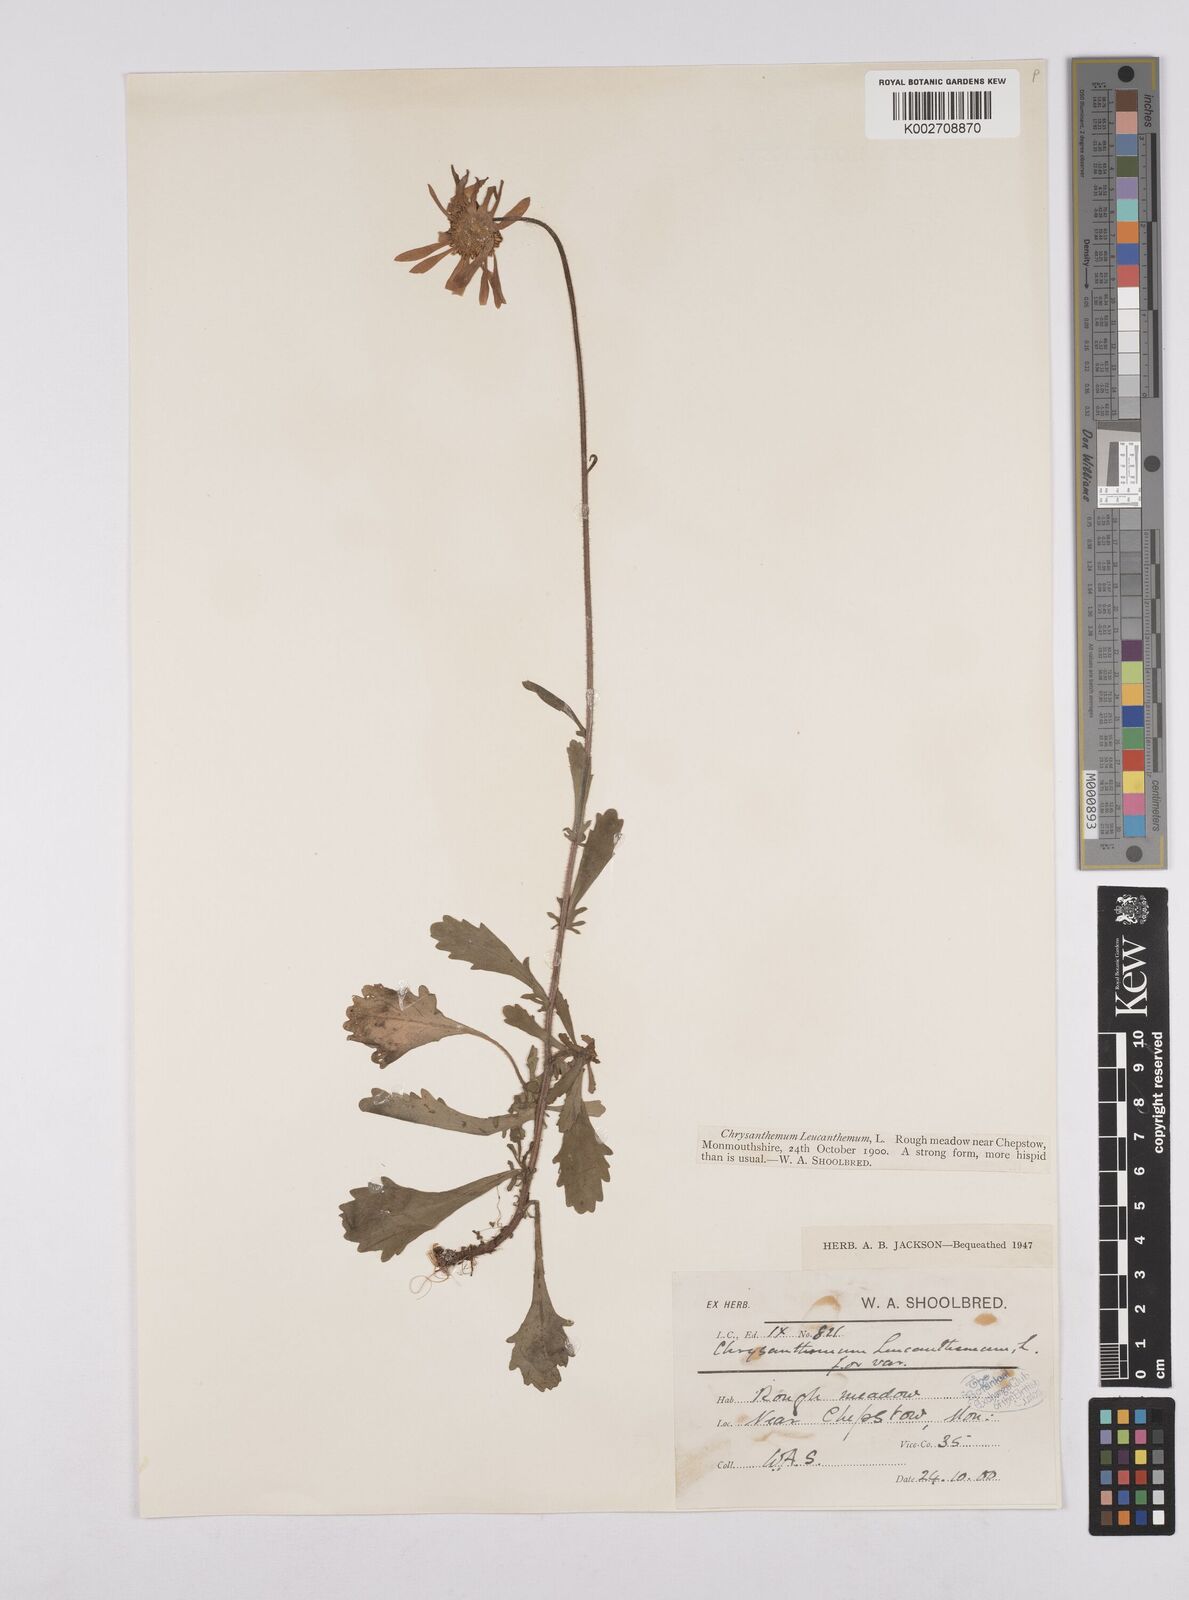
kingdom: Plantae
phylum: Tracheophyta
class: Magnoliopsida
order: Asterales
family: Asteraceae
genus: Leucanthemum
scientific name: Leucanthemum
